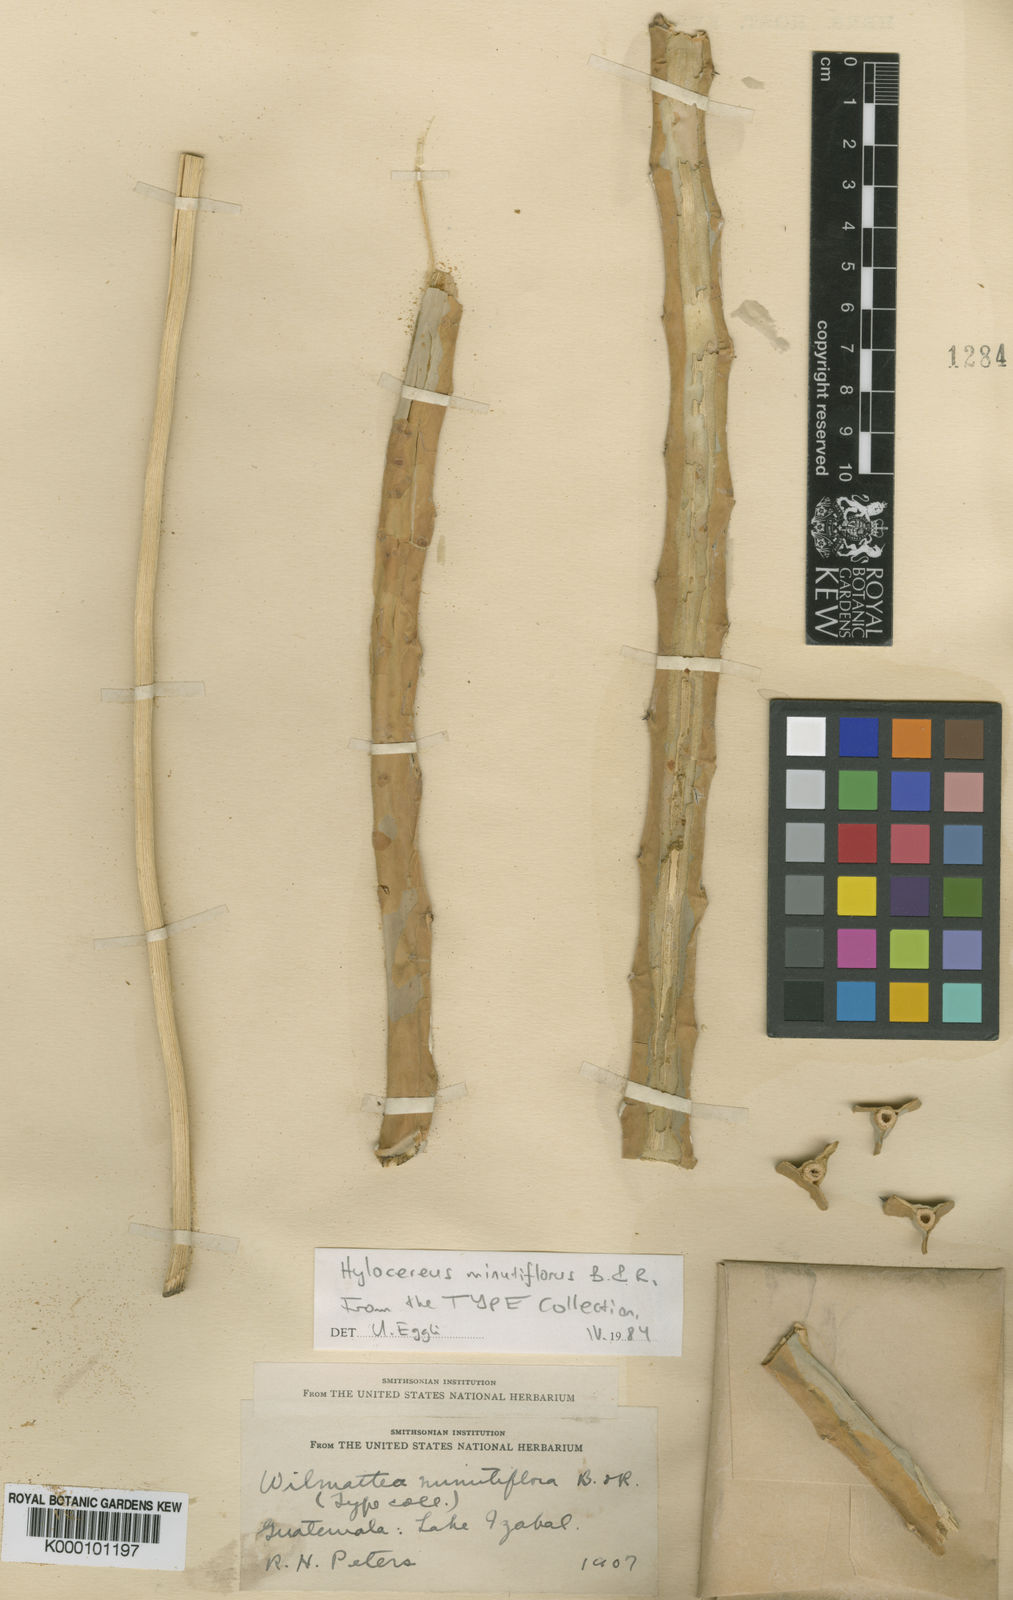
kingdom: Plantae
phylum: Tracheophyta
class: Magnoliopsida
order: Caryophyllales
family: Cactaceae
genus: Selenicereus
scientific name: Selenicereus
